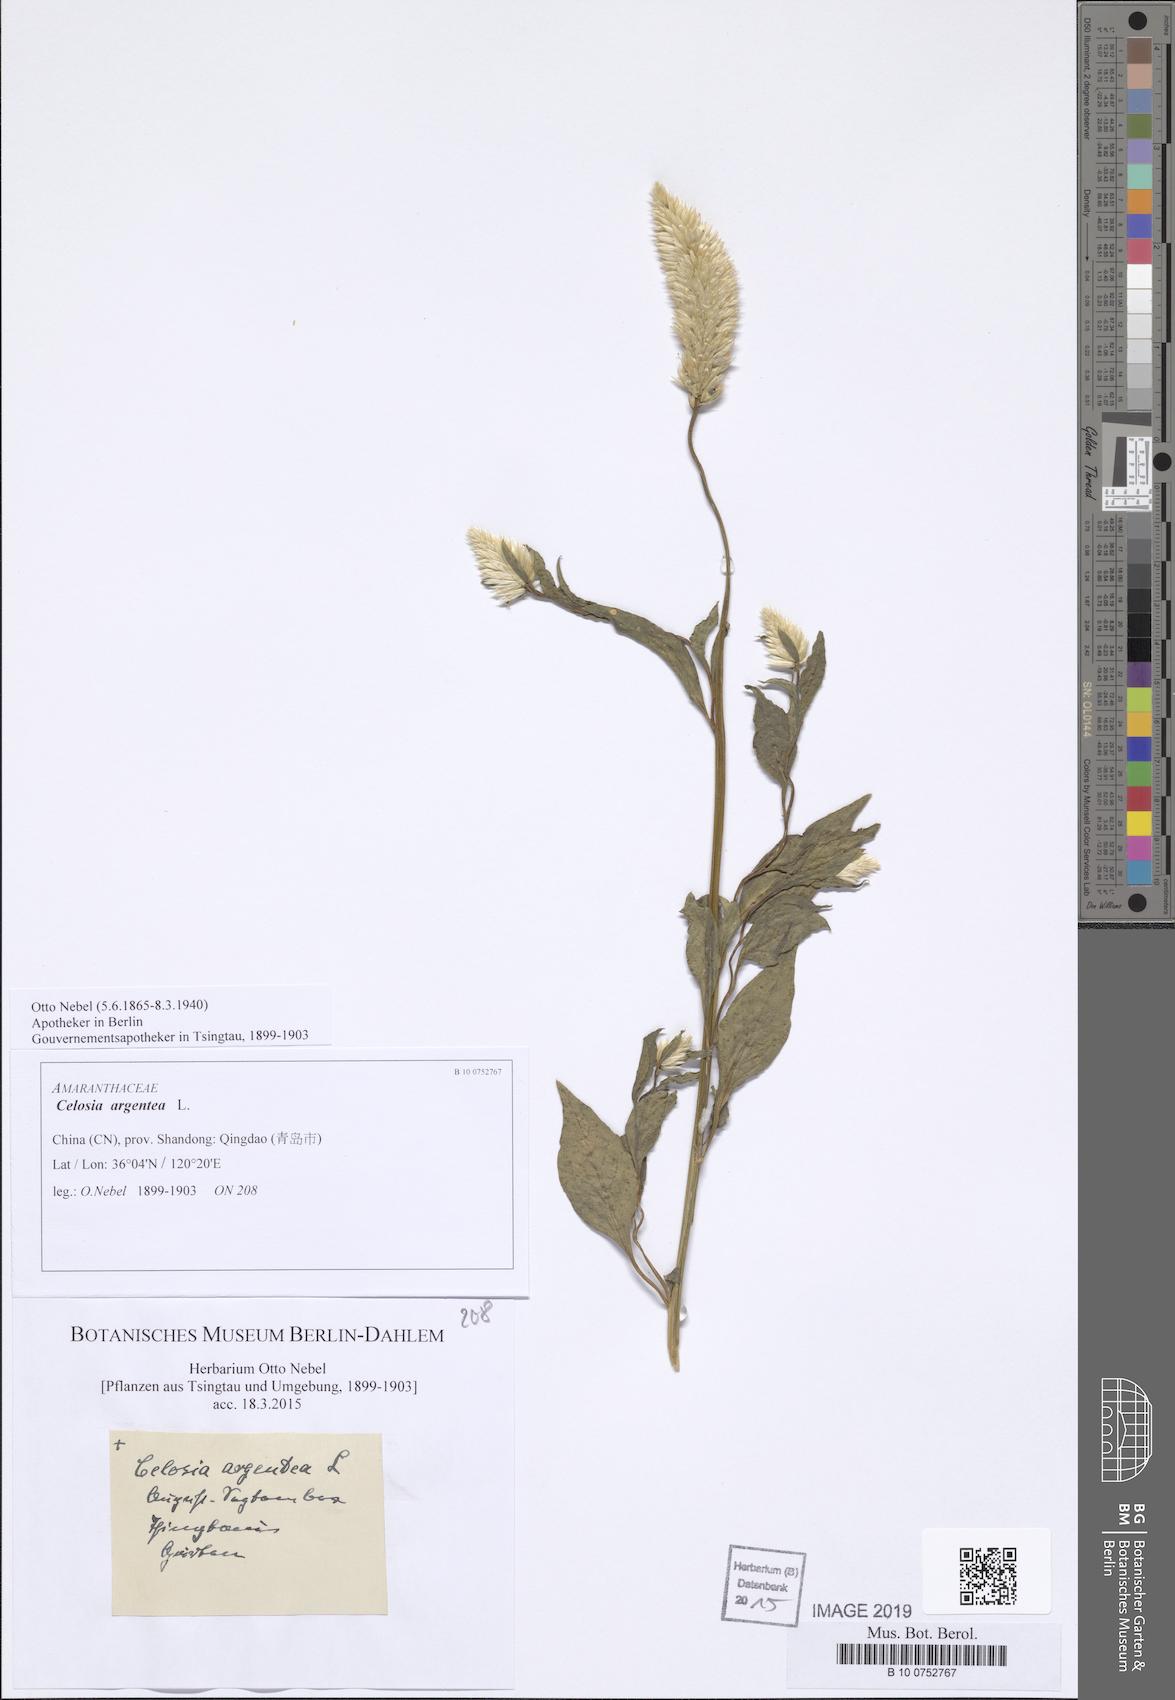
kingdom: Plantae
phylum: Tracheophyta
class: Magnoliopsida
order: Caryophyllales
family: Amaranthaceae
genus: Celosia
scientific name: Celosia argentea
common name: Feather cockscomb
